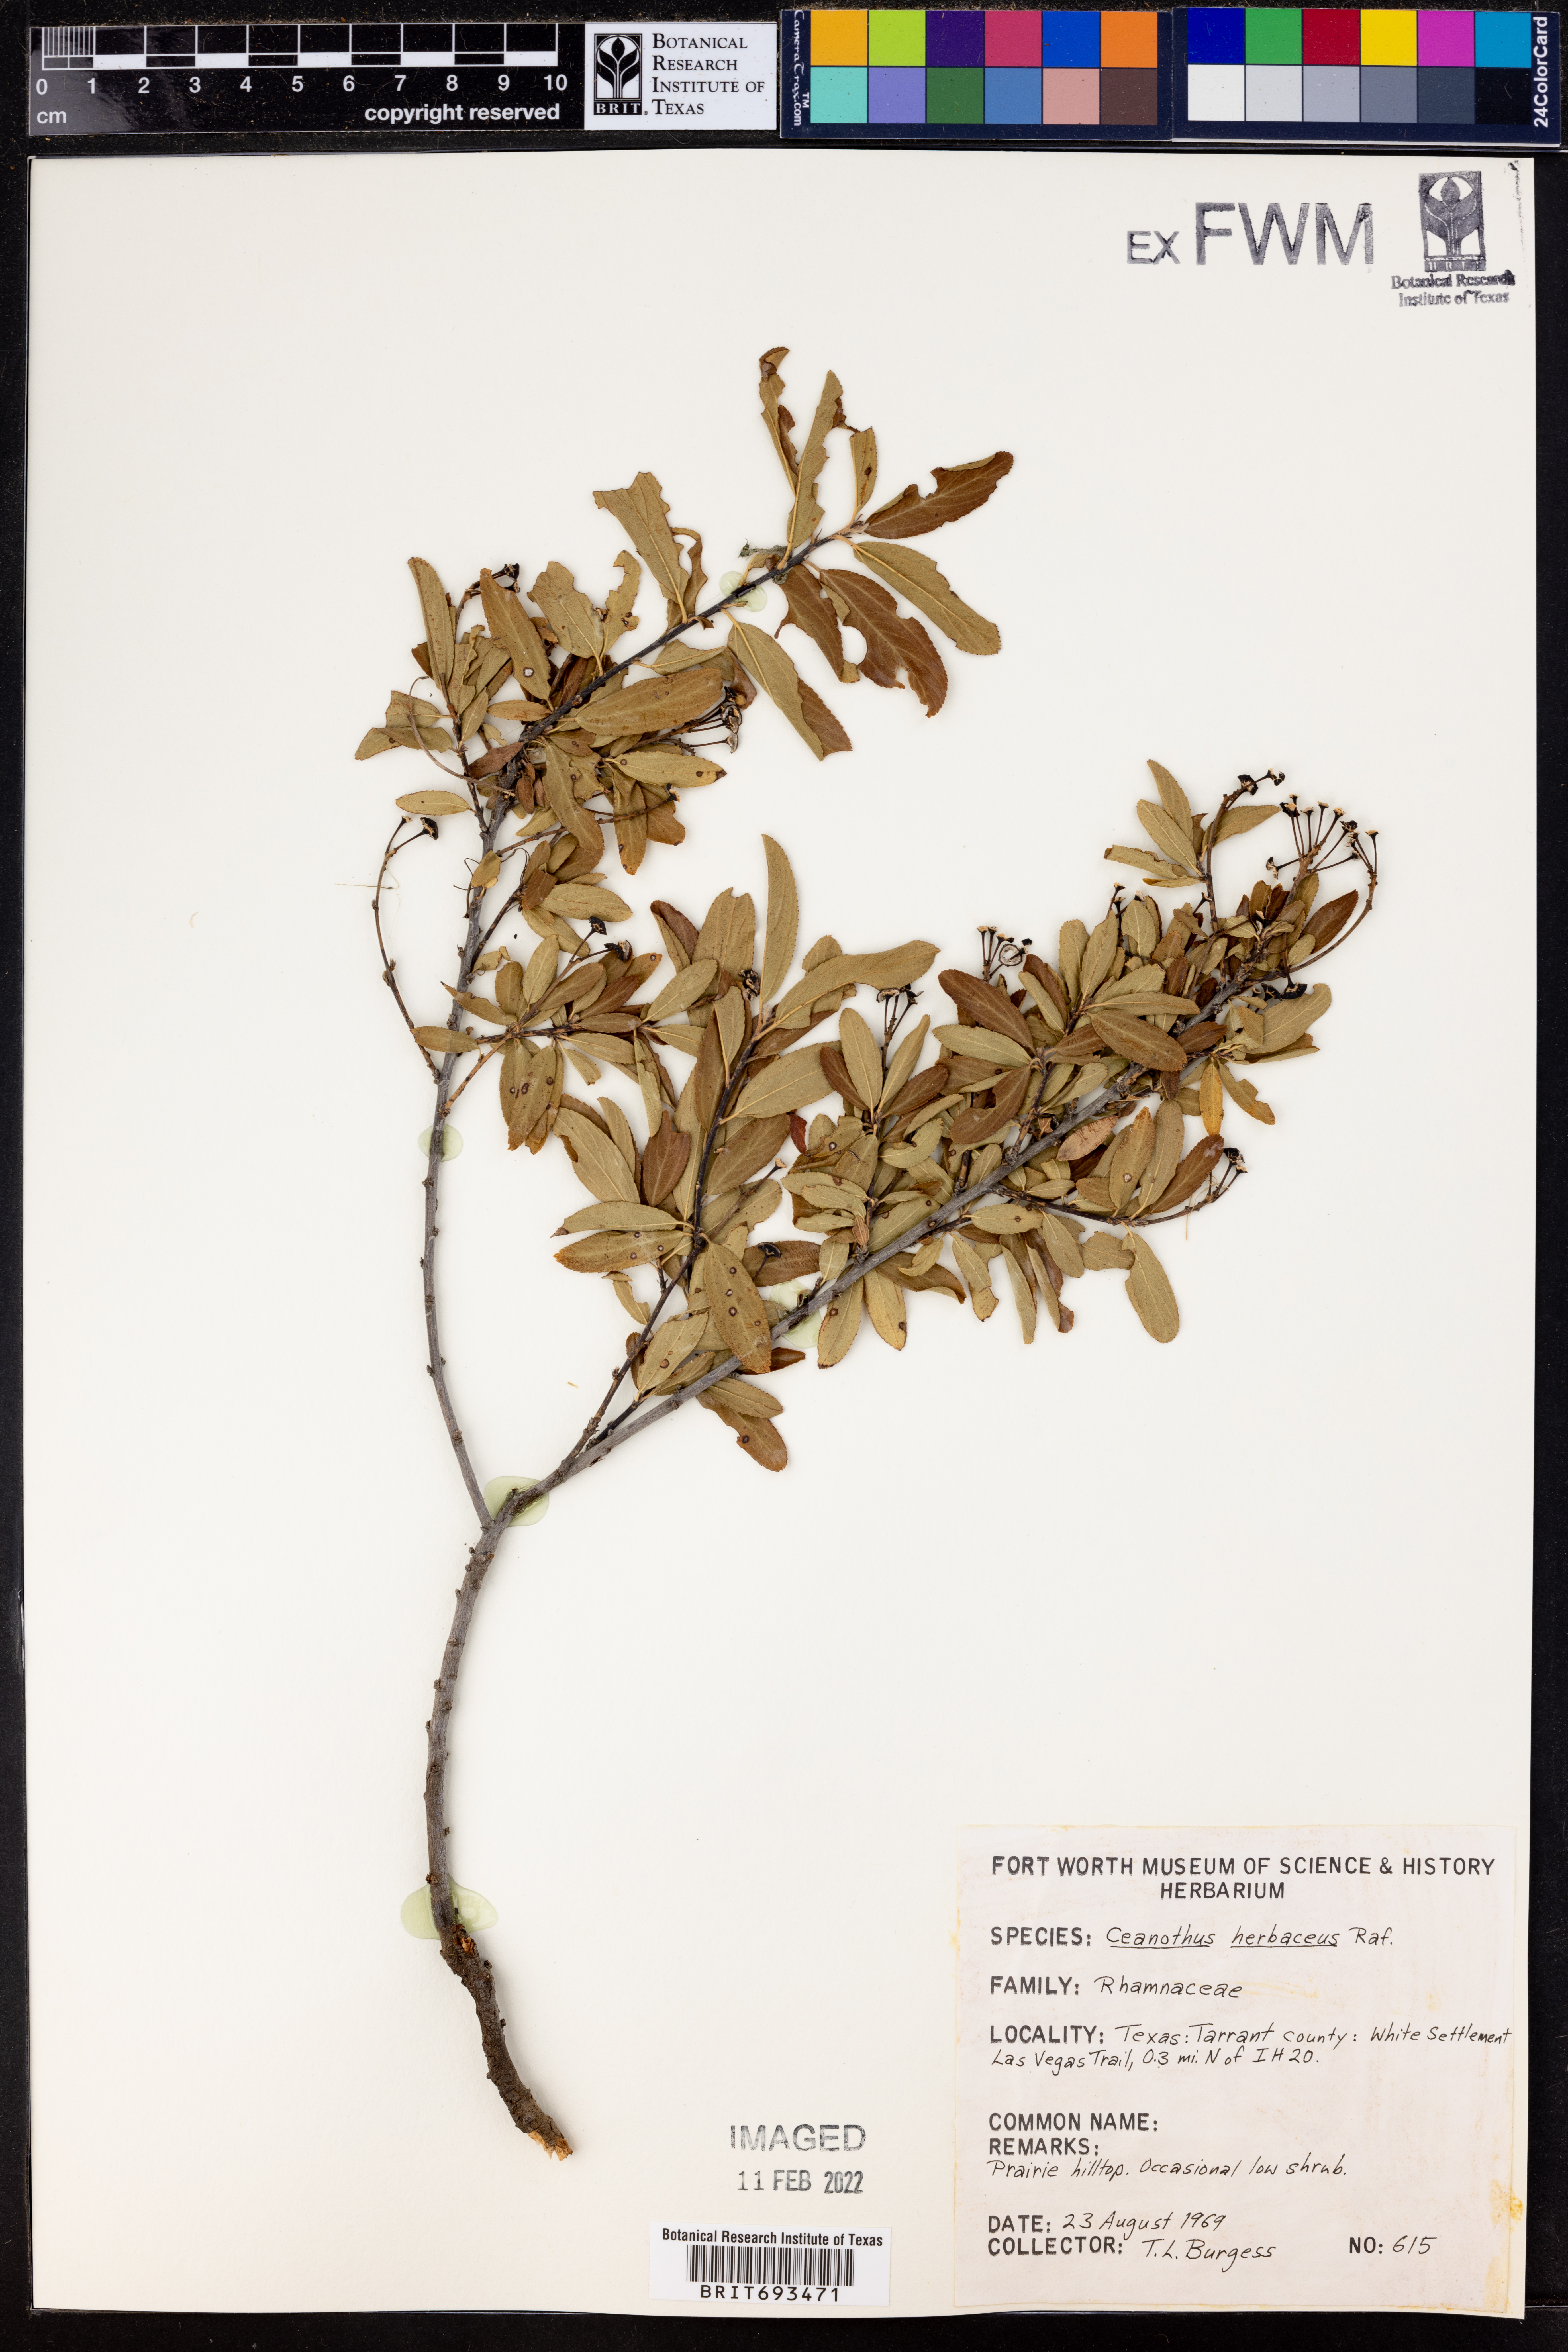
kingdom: Plantae
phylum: Tracheophyta
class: Magnoliopsida
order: Rosales
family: Rhamnaceae
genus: Ceanothus
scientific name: Ceanothus herbaceus
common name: Inland ceanothus
